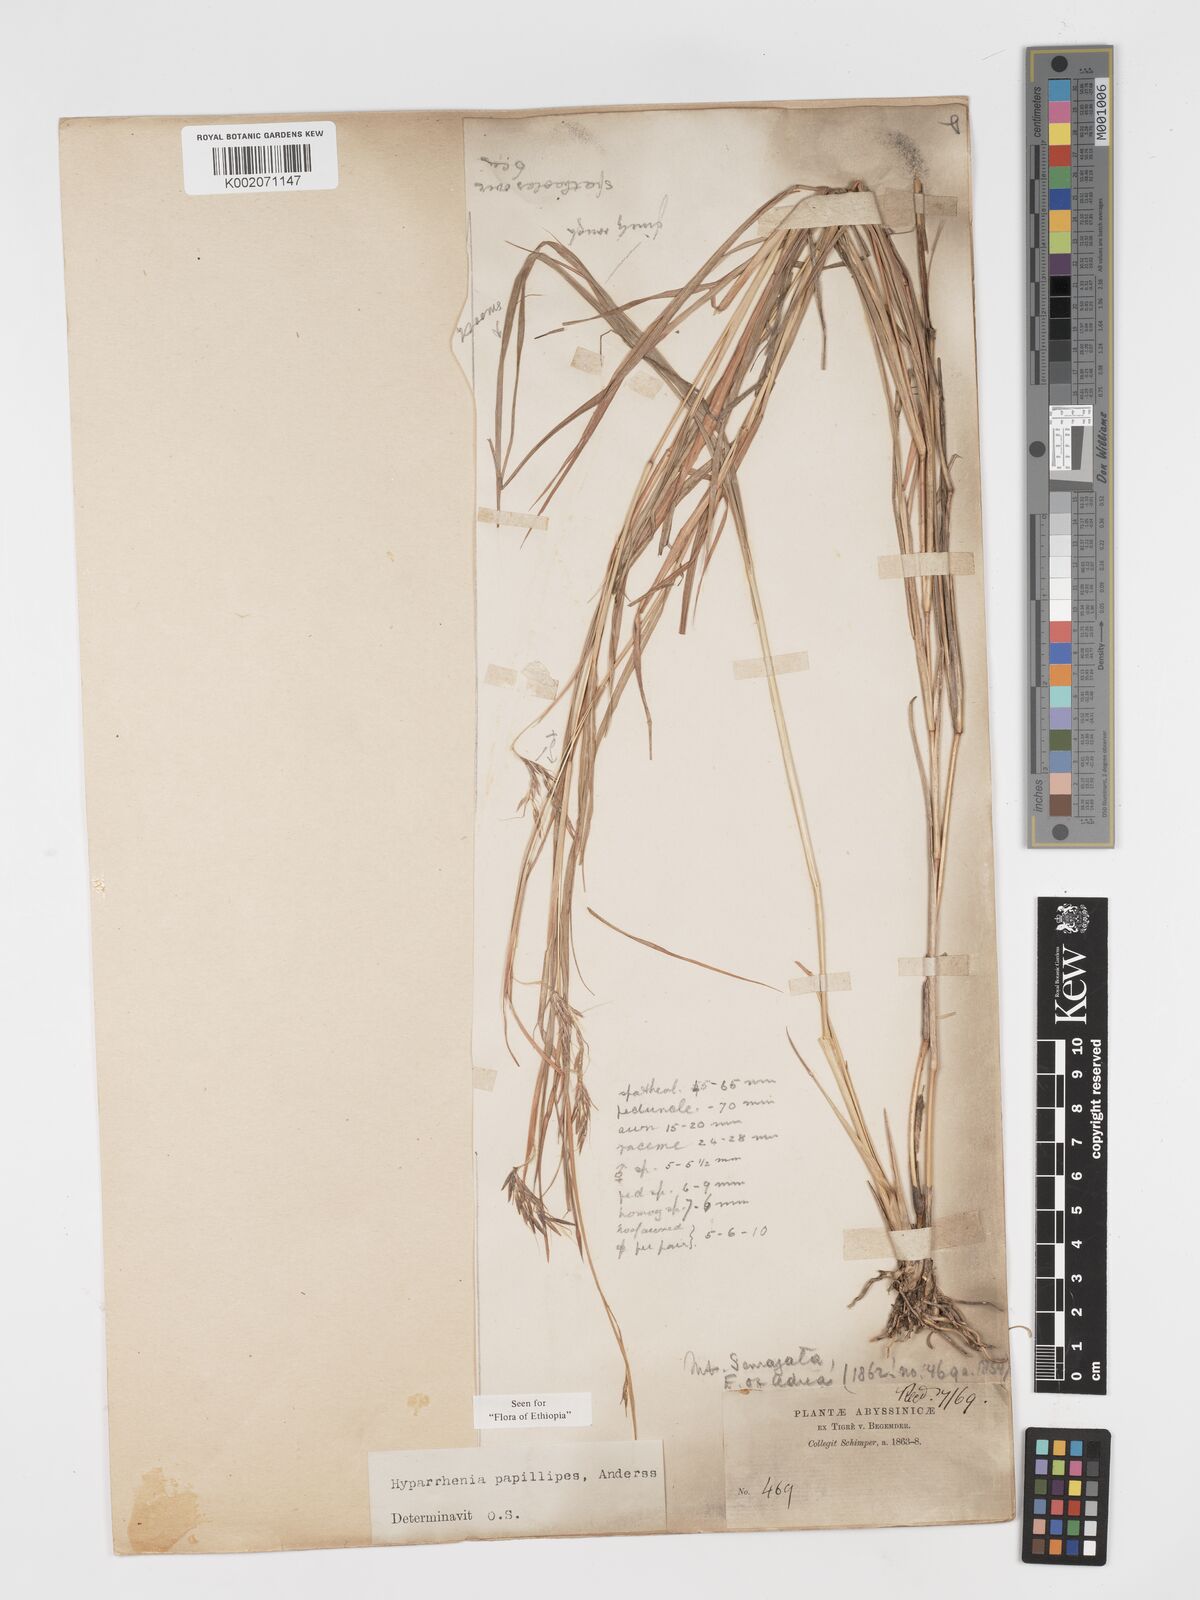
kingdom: Plantae
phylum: Tracheophyta
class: Liliopsida
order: Poales
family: Poaceae
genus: Hyparrhenia
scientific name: Hyparrhenia papillipes
